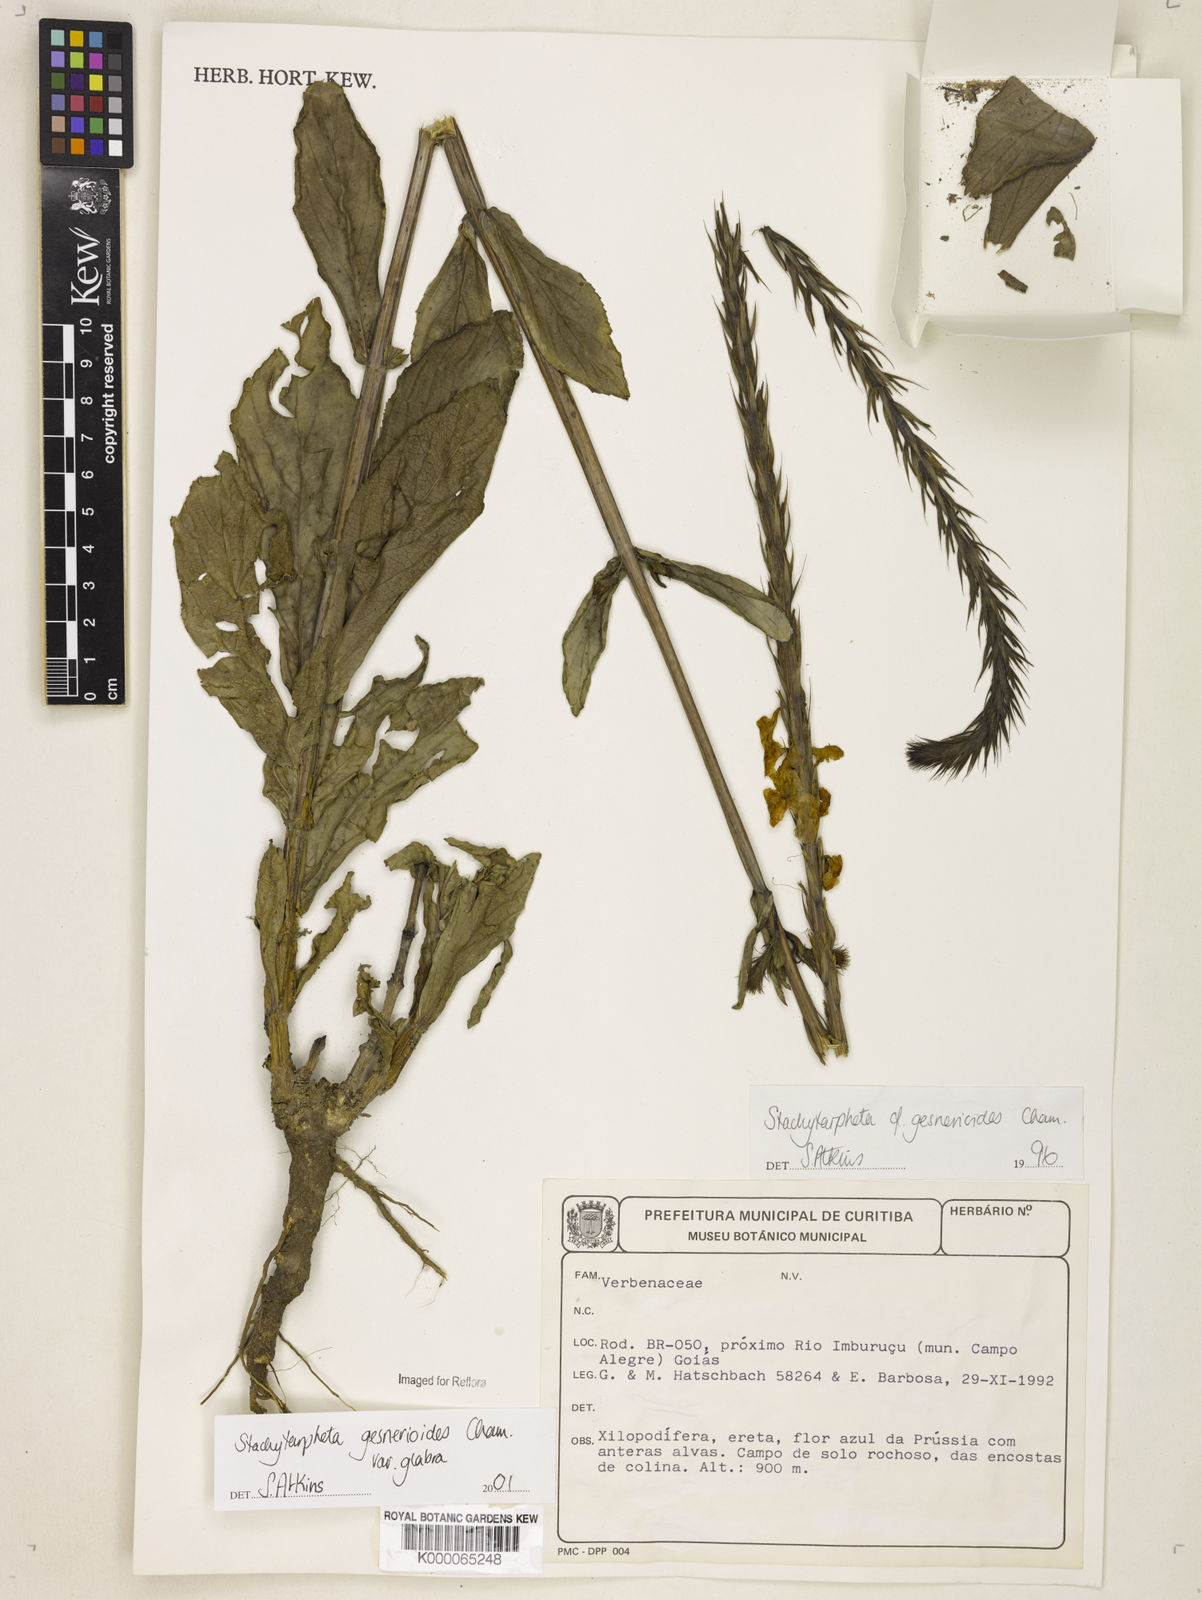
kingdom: Plantae
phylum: Tracheophyta
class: Magnoliopsida
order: Lamiales
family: Verbenaceae
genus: Stachytarpheta
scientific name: Stachytarpheta gesnerioides
